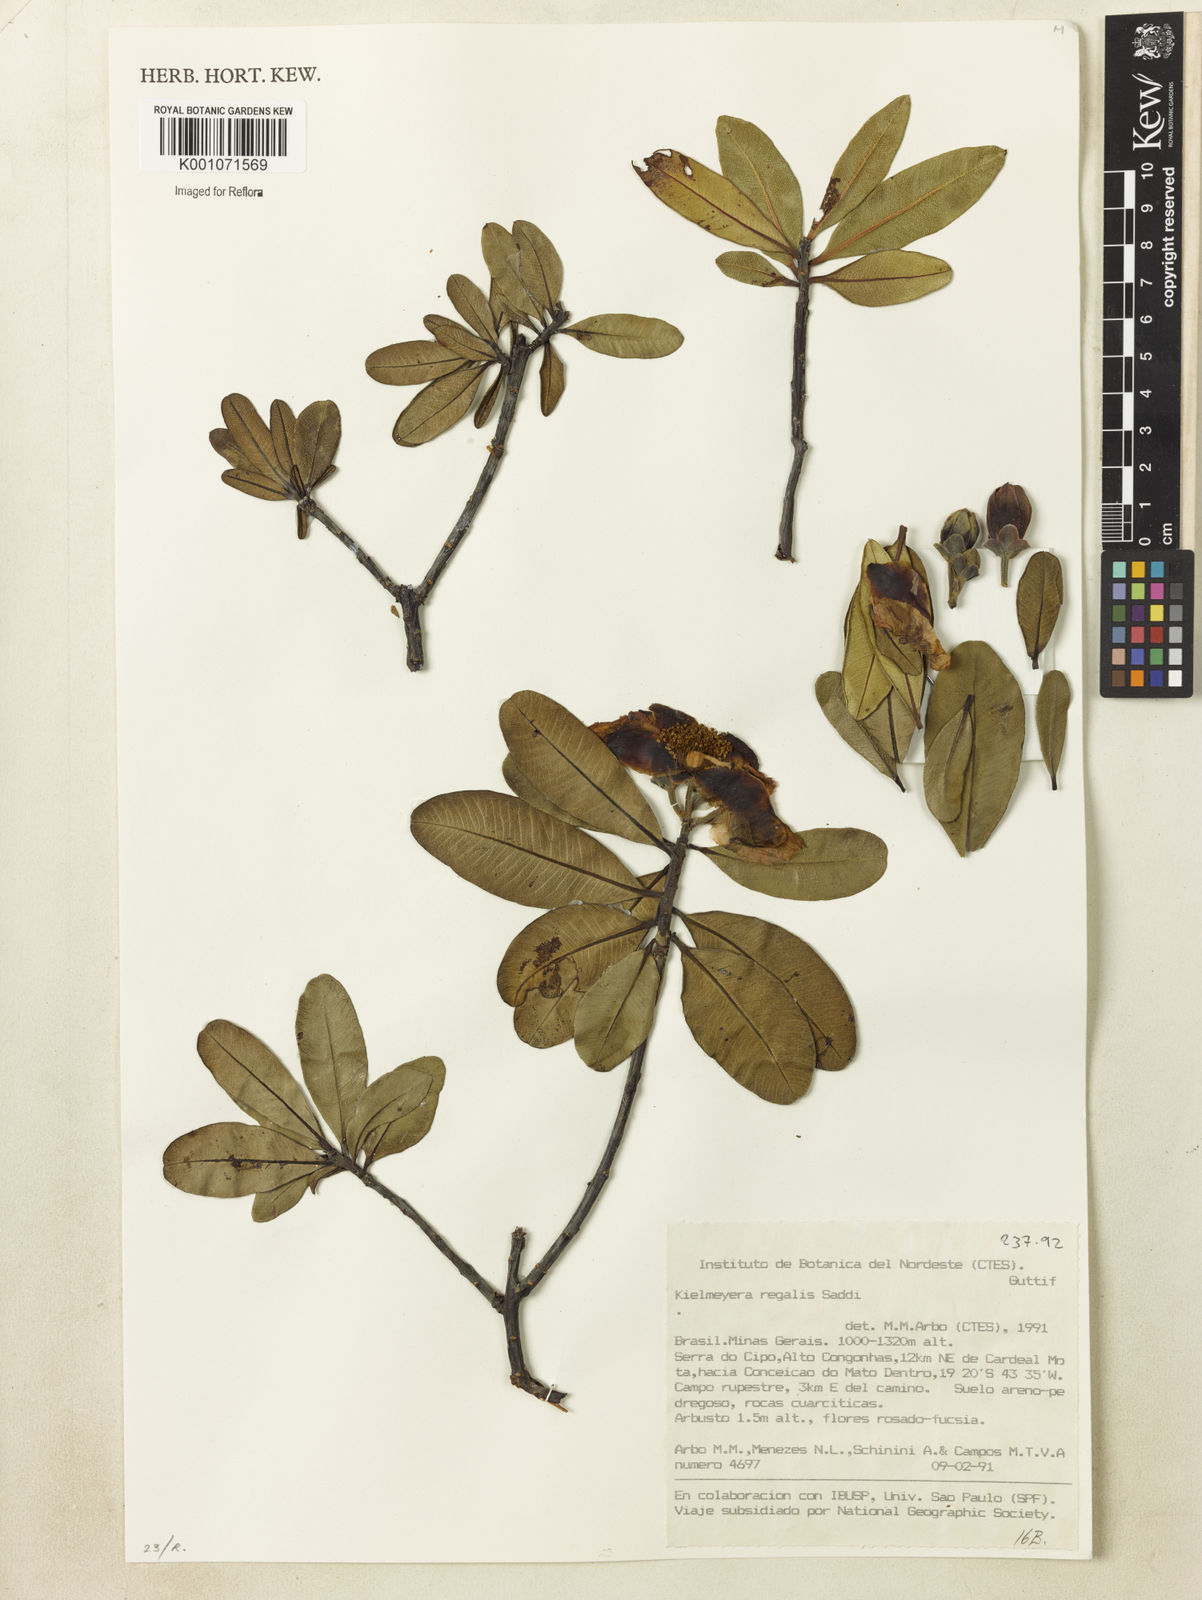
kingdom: Plantae
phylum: Tracheophyta
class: Magnoliopsida
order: Malpighiales
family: Calophyllaceae
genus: Kielmeyera
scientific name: Kielmeyera regalis
